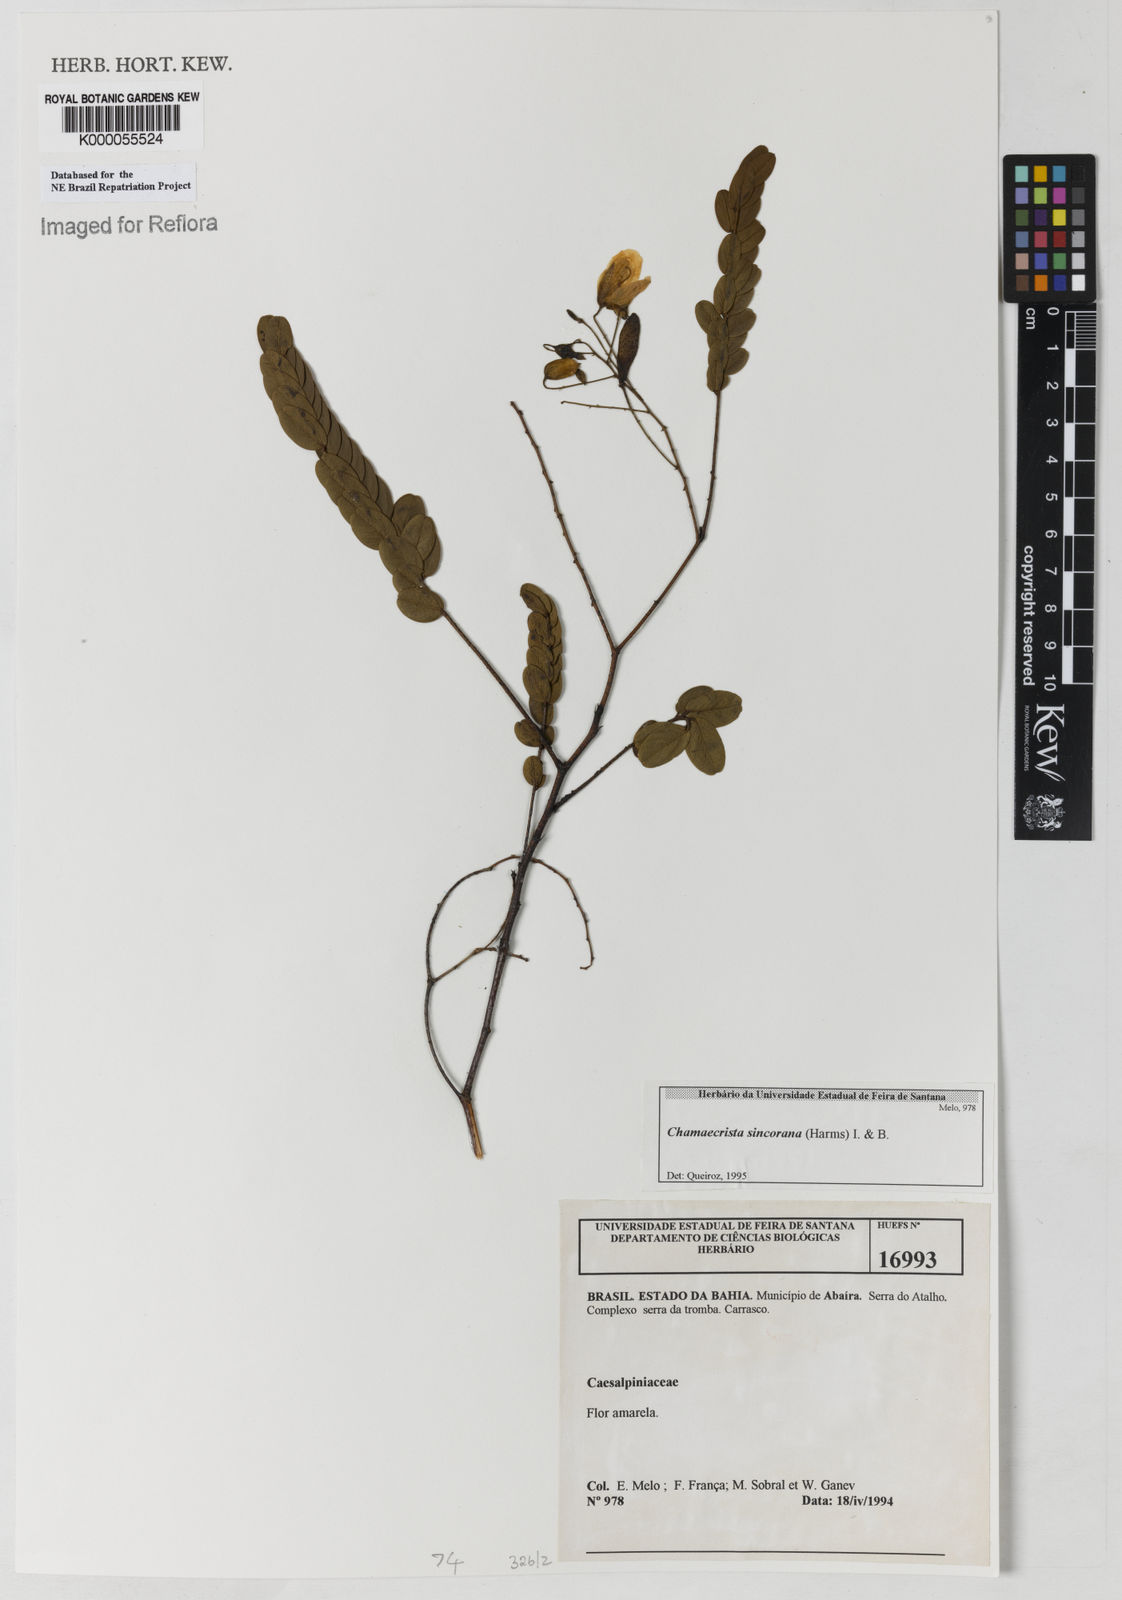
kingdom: Plantae
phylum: Tracheophyta
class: Magnoliopsida
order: Fabales
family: Fabaceae
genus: Chamaecrista
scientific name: Chamaecrista sincorana
